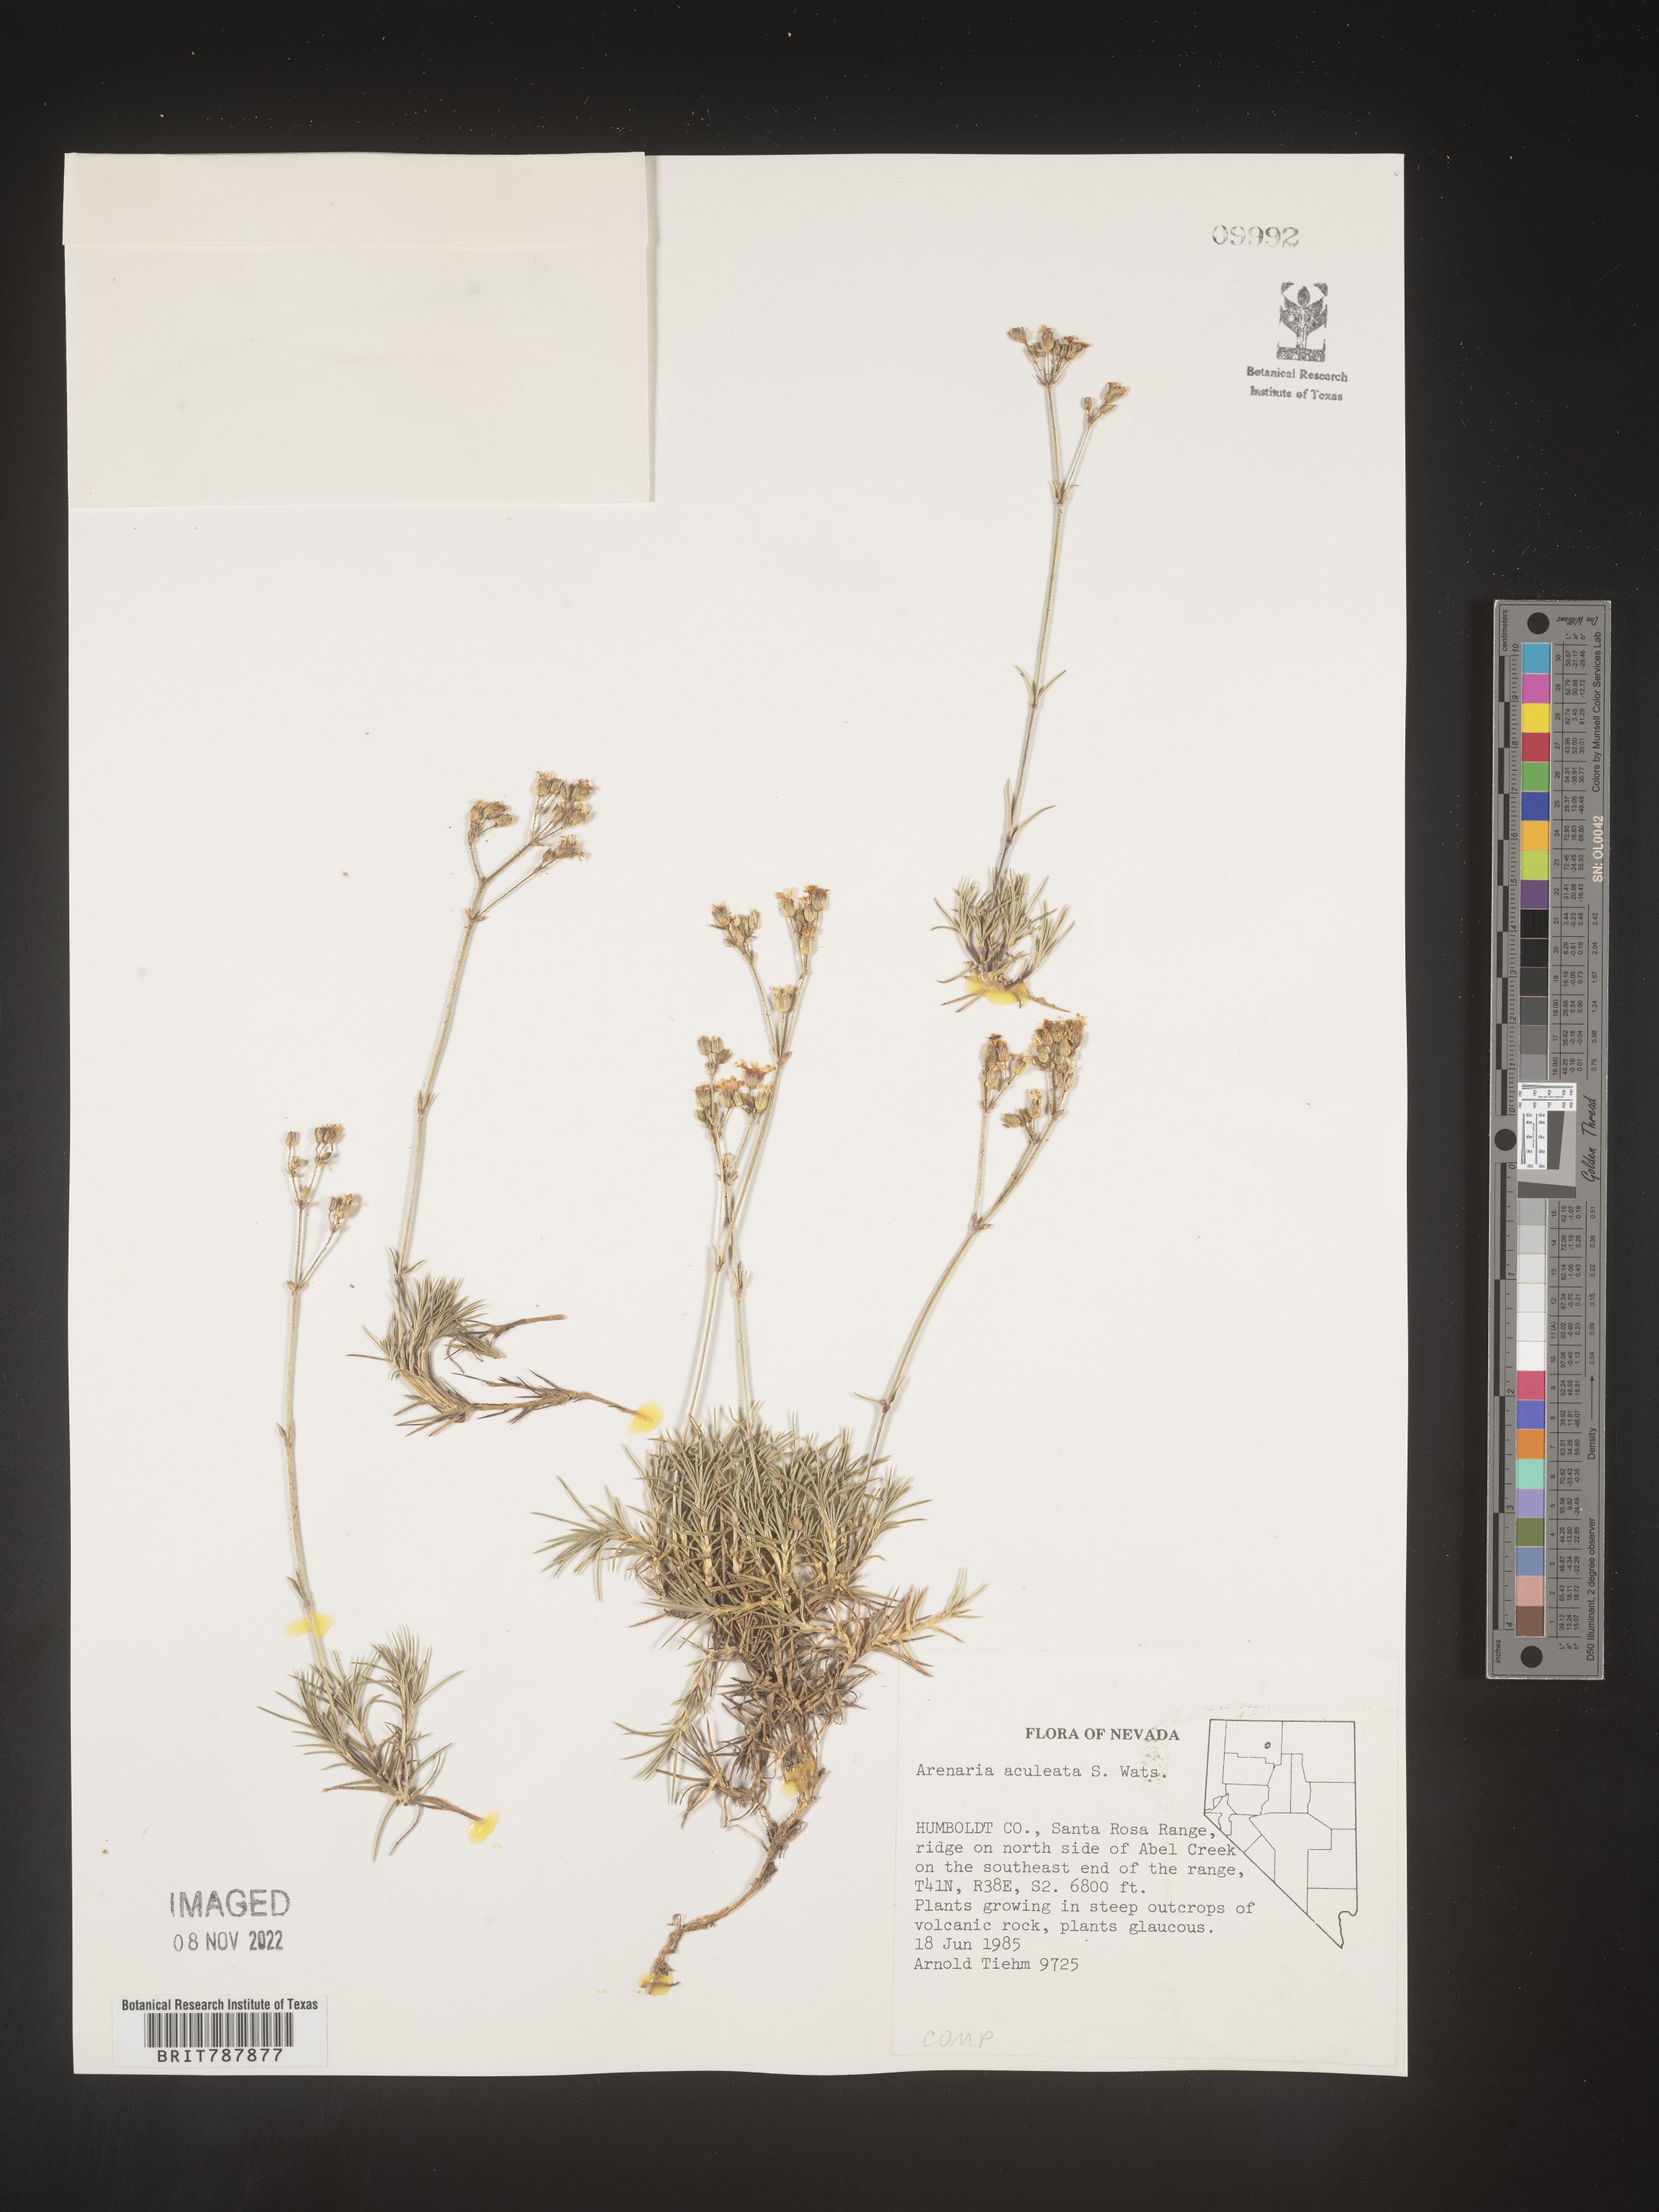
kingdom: Plantae
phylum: Tracheophyta
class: Magnoliopsida
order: Caryophyllales
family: Caryophyllaceae
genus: Arenaria
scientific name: Arenaria
